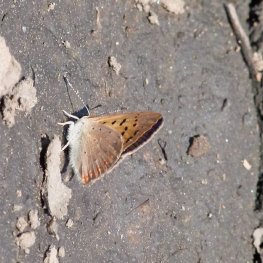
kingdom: Animalia
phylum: Arthropoda
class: Insecta
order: Lepidoptera
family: Sesiidae
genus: Sesia
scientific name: Sesia Lycaena helloides
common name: Purplish Copper
